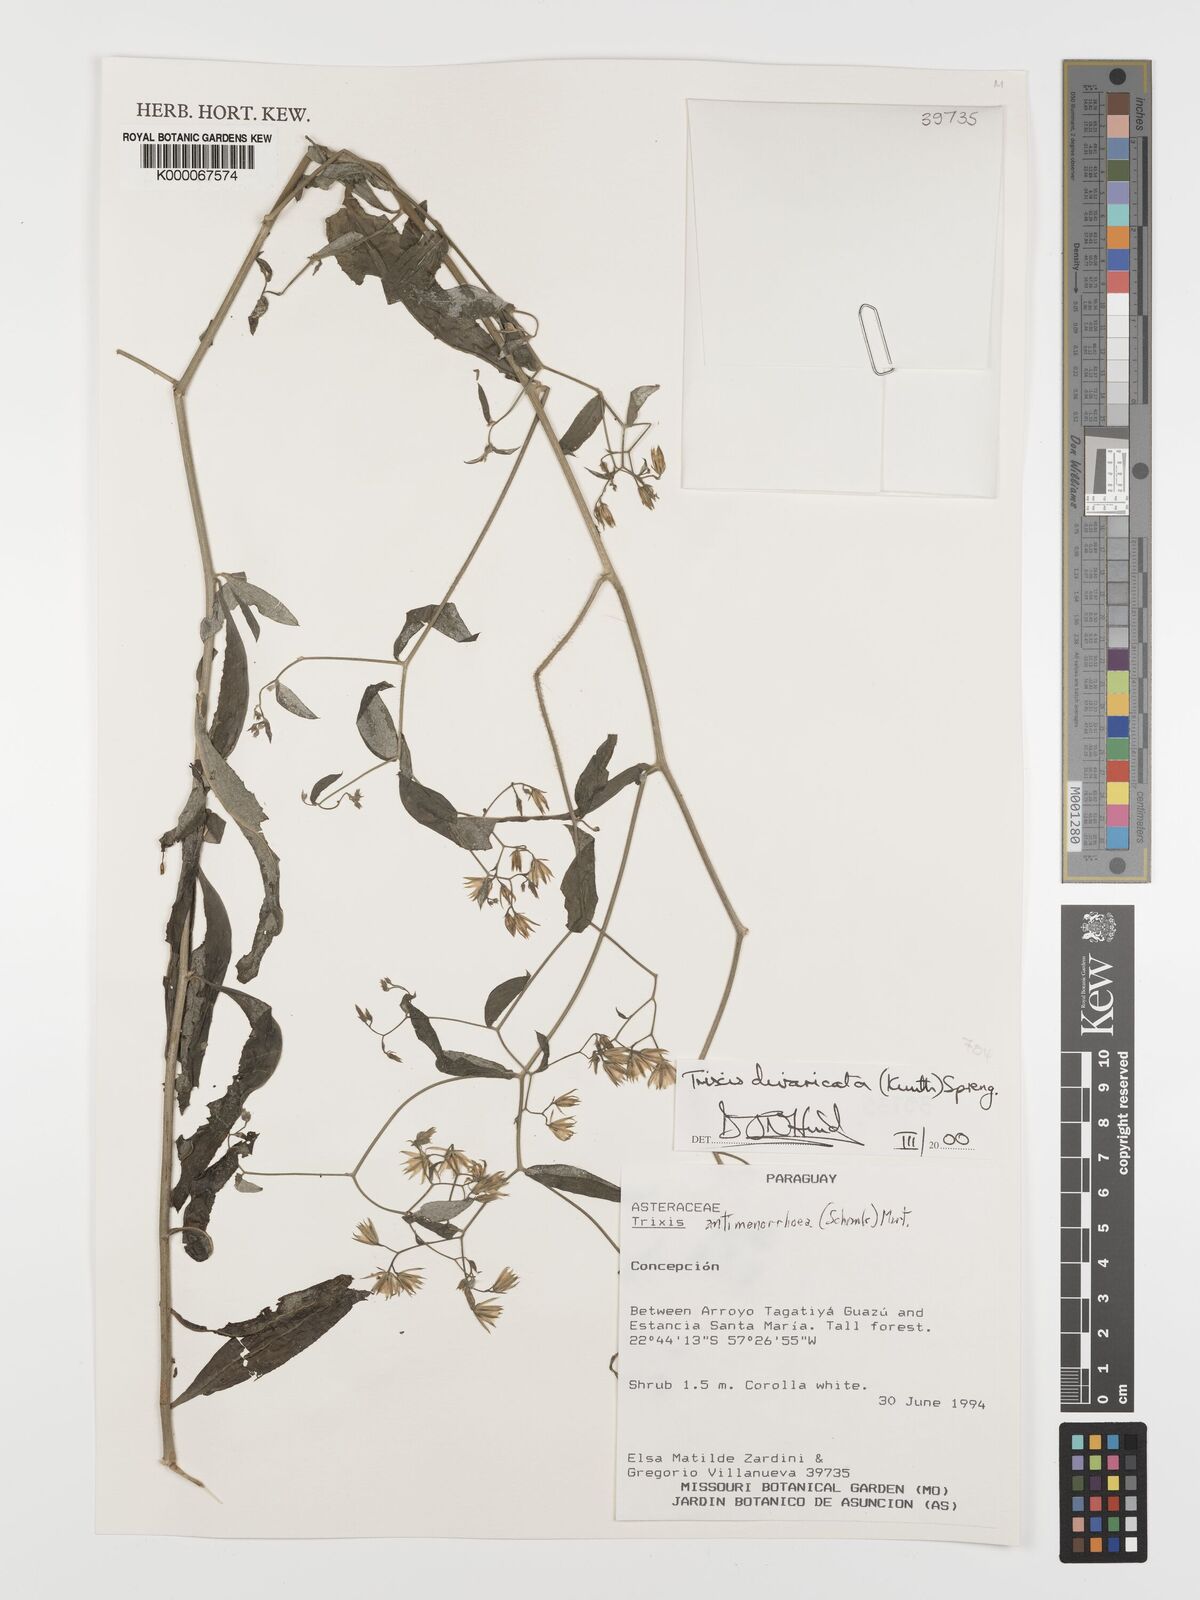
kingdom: Plantae
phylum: Tracheophyta
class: Magnoliopsida
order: Asterales
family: Asteraceae
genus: Trixis
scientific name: Trixis divaricata
